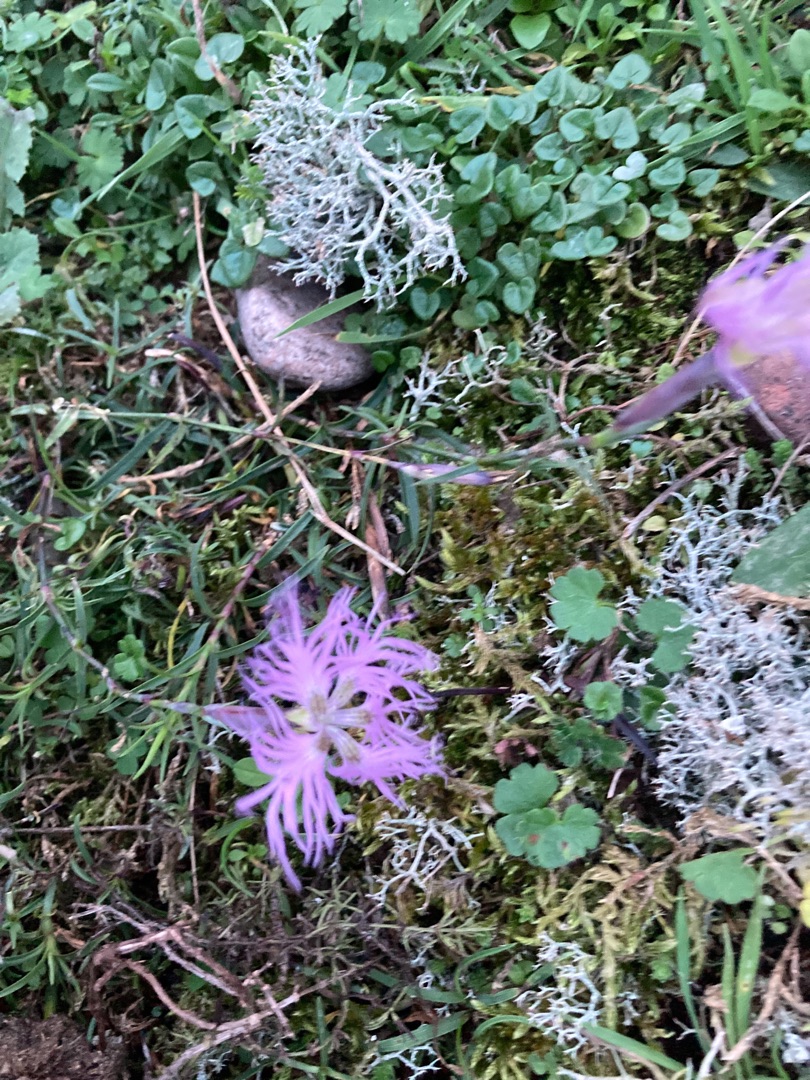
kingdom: Plantae
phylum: Tracheophyta
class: Magnoliopsida
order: Caryophyllales
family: Caryophyllaceae
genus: Dianthus
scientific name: Dianthus superbus
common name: Strand-nellike
